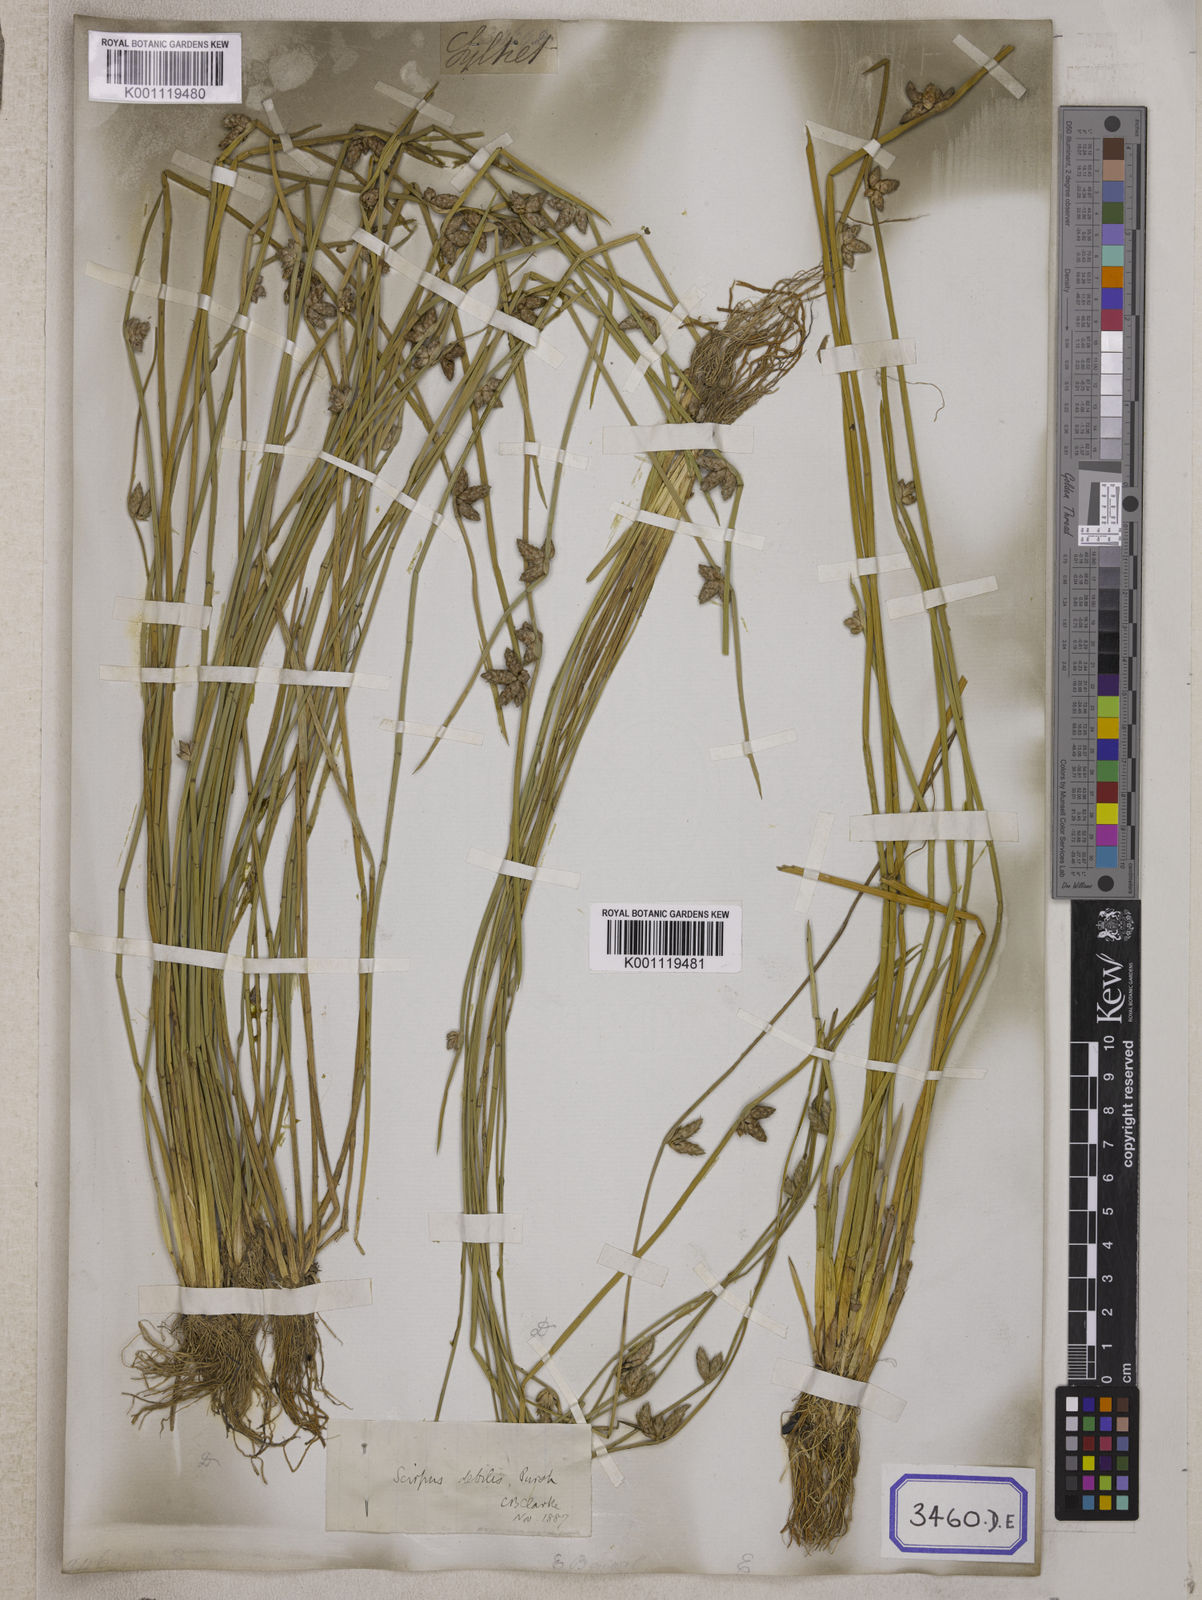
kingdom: Plantae
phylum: Tracheophyta
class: Liliopsida
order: Poales
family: Cyperaceae
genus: Scirpus
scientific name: Scirpus
